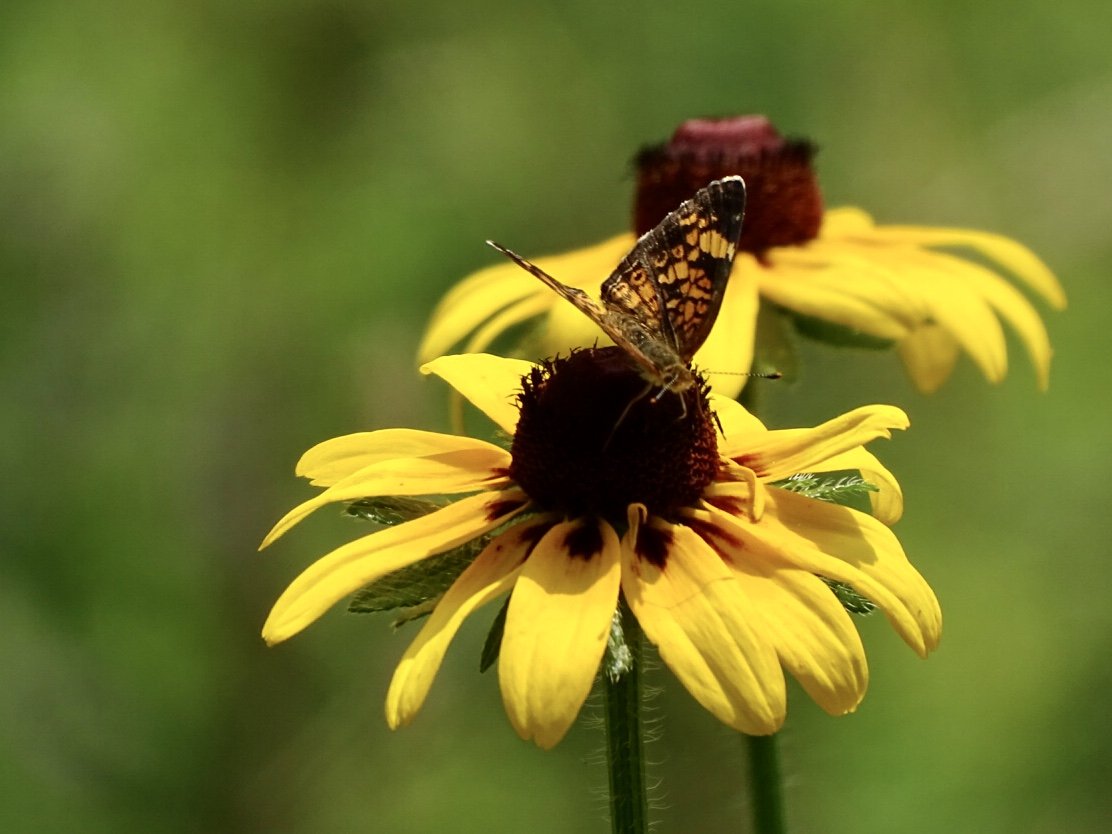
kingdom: Animalia
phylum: Arthropoda
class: Insecta
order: Lepidoptera
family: Nymphalidae
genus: Phyciodes
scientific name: Phyciodes tharos
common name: Pearl Crescent
